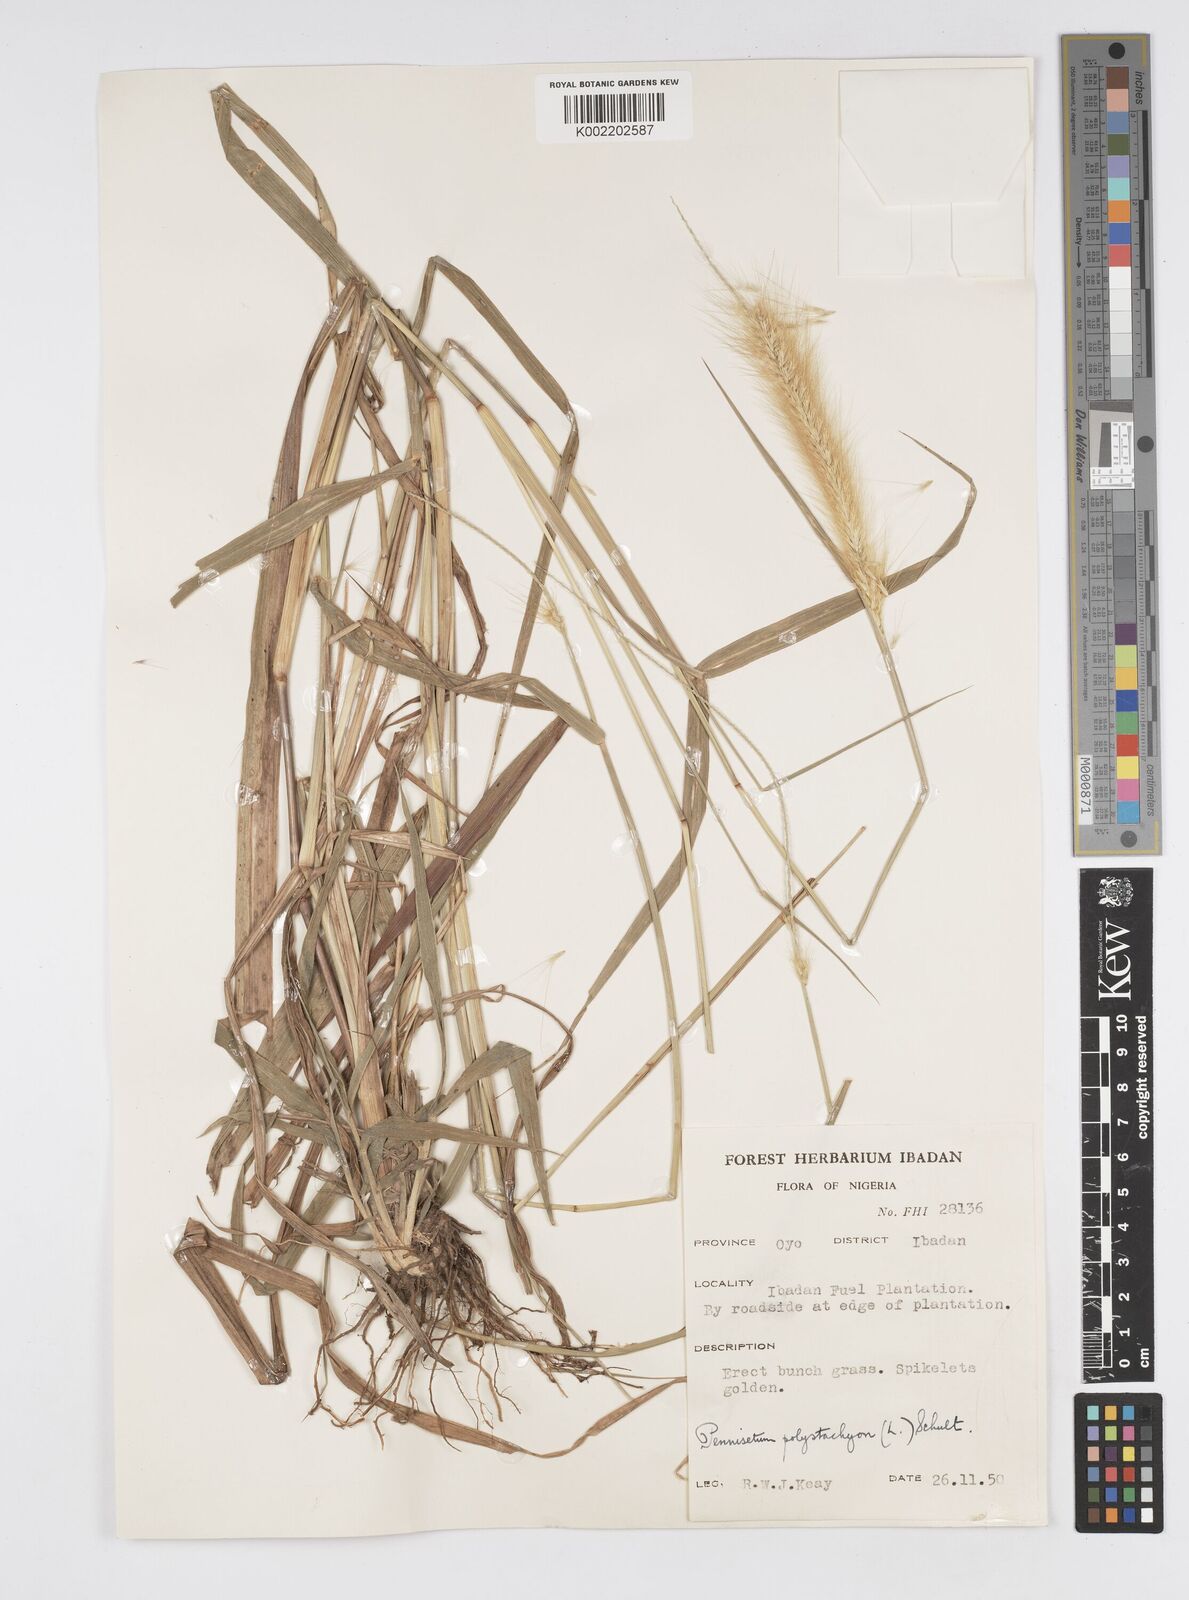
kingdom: Plantae
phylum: Tracheophyta
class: Liliopsida
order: Poales
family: Poaceae
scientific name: Poaceae
